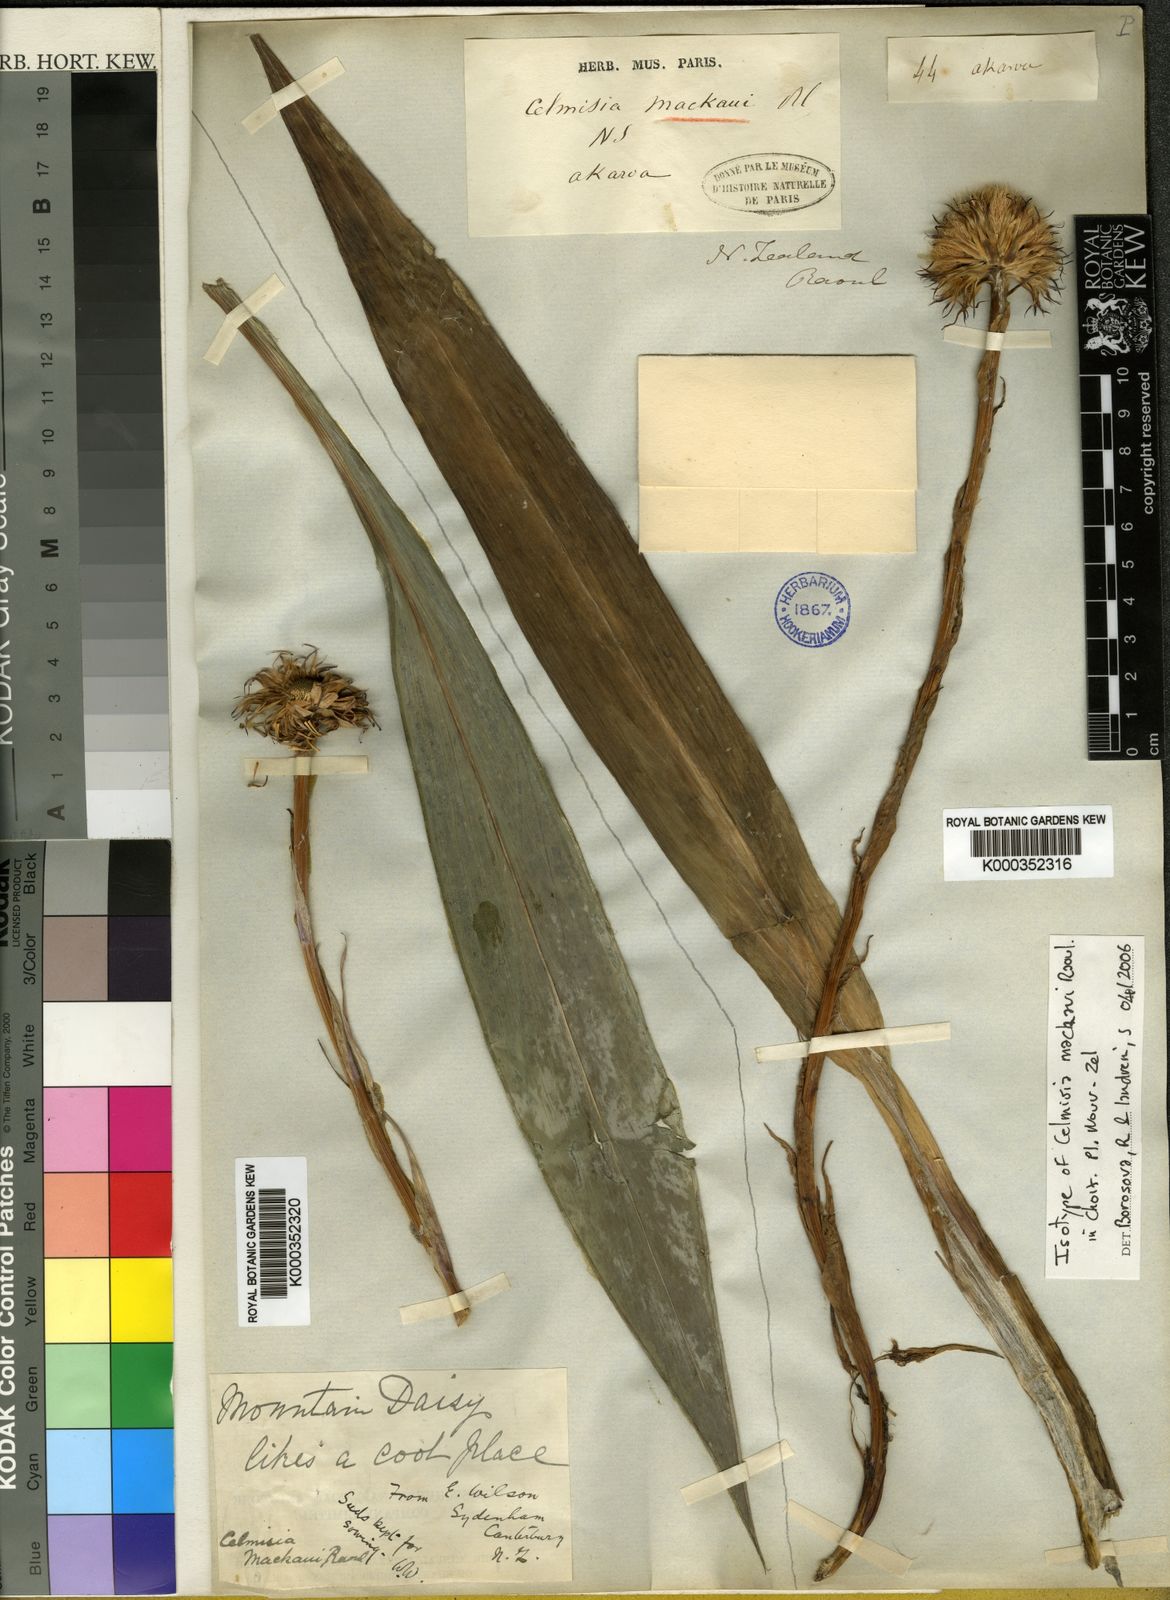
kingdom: Plantae
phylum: Tracheophyta
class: Magnoliopsida
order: Asterales
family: Asteraceae
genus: Celmisia
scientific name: Celmisia mackaui
